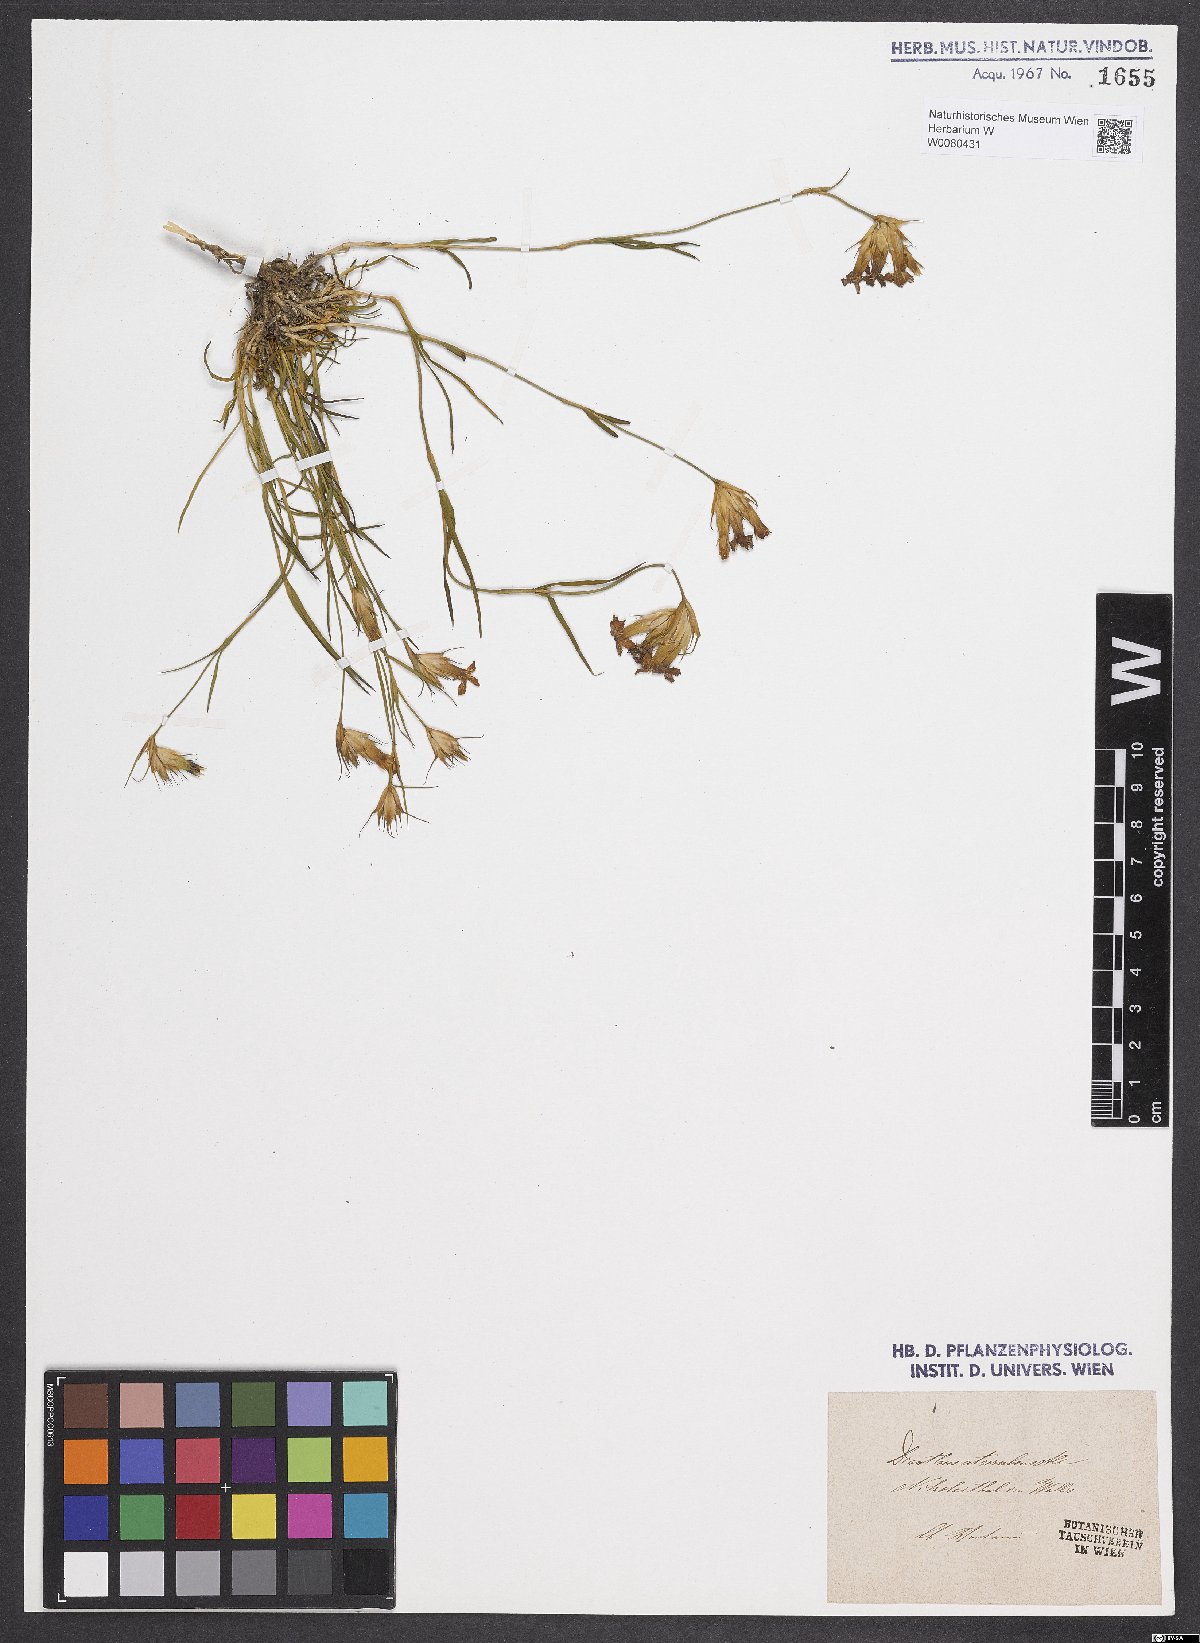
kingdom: Plantae
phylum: Tracheophyta
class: Magnoliopsida
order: Caryophyllales
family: Caryophyllaceae
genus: Dianthus
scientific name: Dianthus carthusianorum
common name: Carthusian pink
